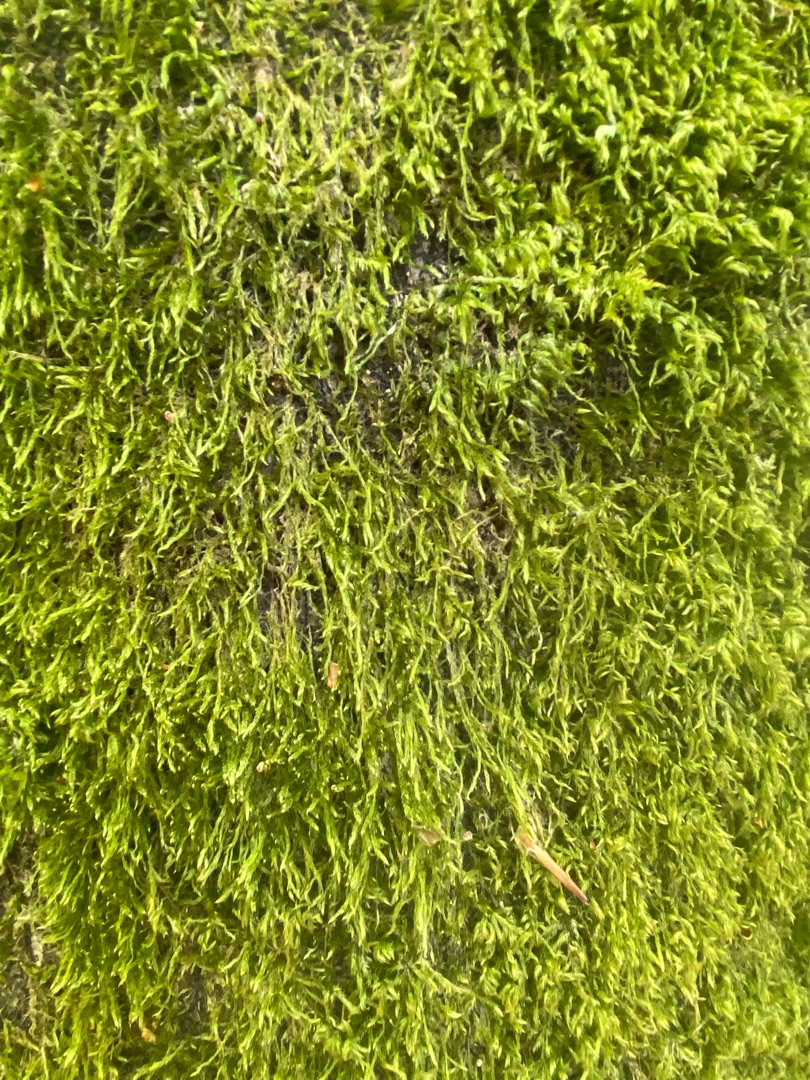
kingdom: Plantae
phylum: Bryophyta
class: Bryopsida
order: Hypnales
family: Hypnaceae
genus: Hypnum
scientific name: Hypnum
